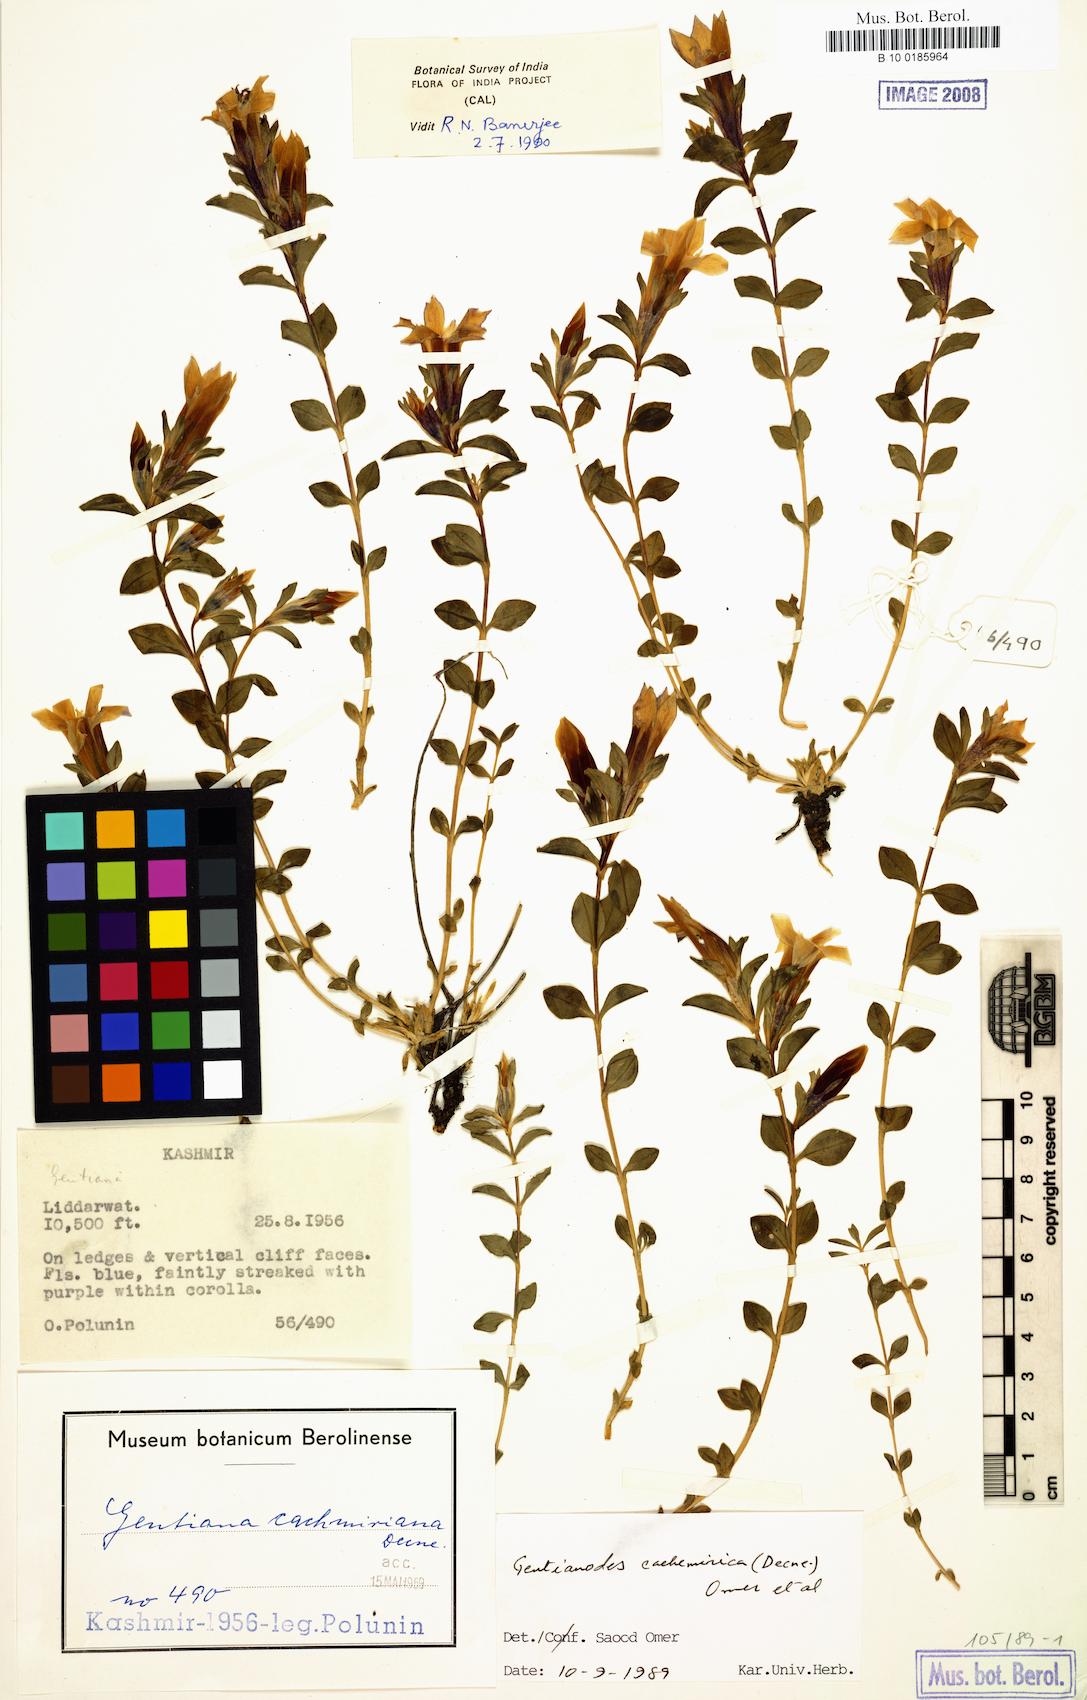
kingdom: Plantae
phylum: Tracheophyta
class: Magnoliopsida
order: Gentianales
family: Gentianaceae
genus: Gentiana
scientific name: Gentiana cachemirica
